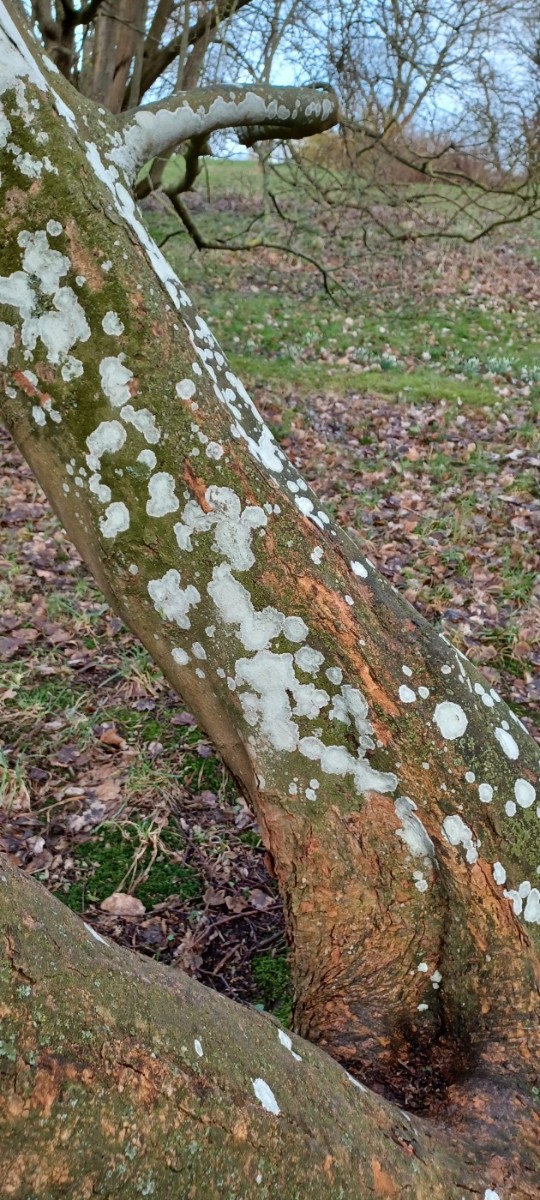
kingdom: Fungi
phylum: Ascomycota
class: Lecanoromycetes
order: Ostropales
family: Phlyctidaceae
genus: Phlyctis
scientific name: Phlyctis argena
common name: almindelig sølvlav
